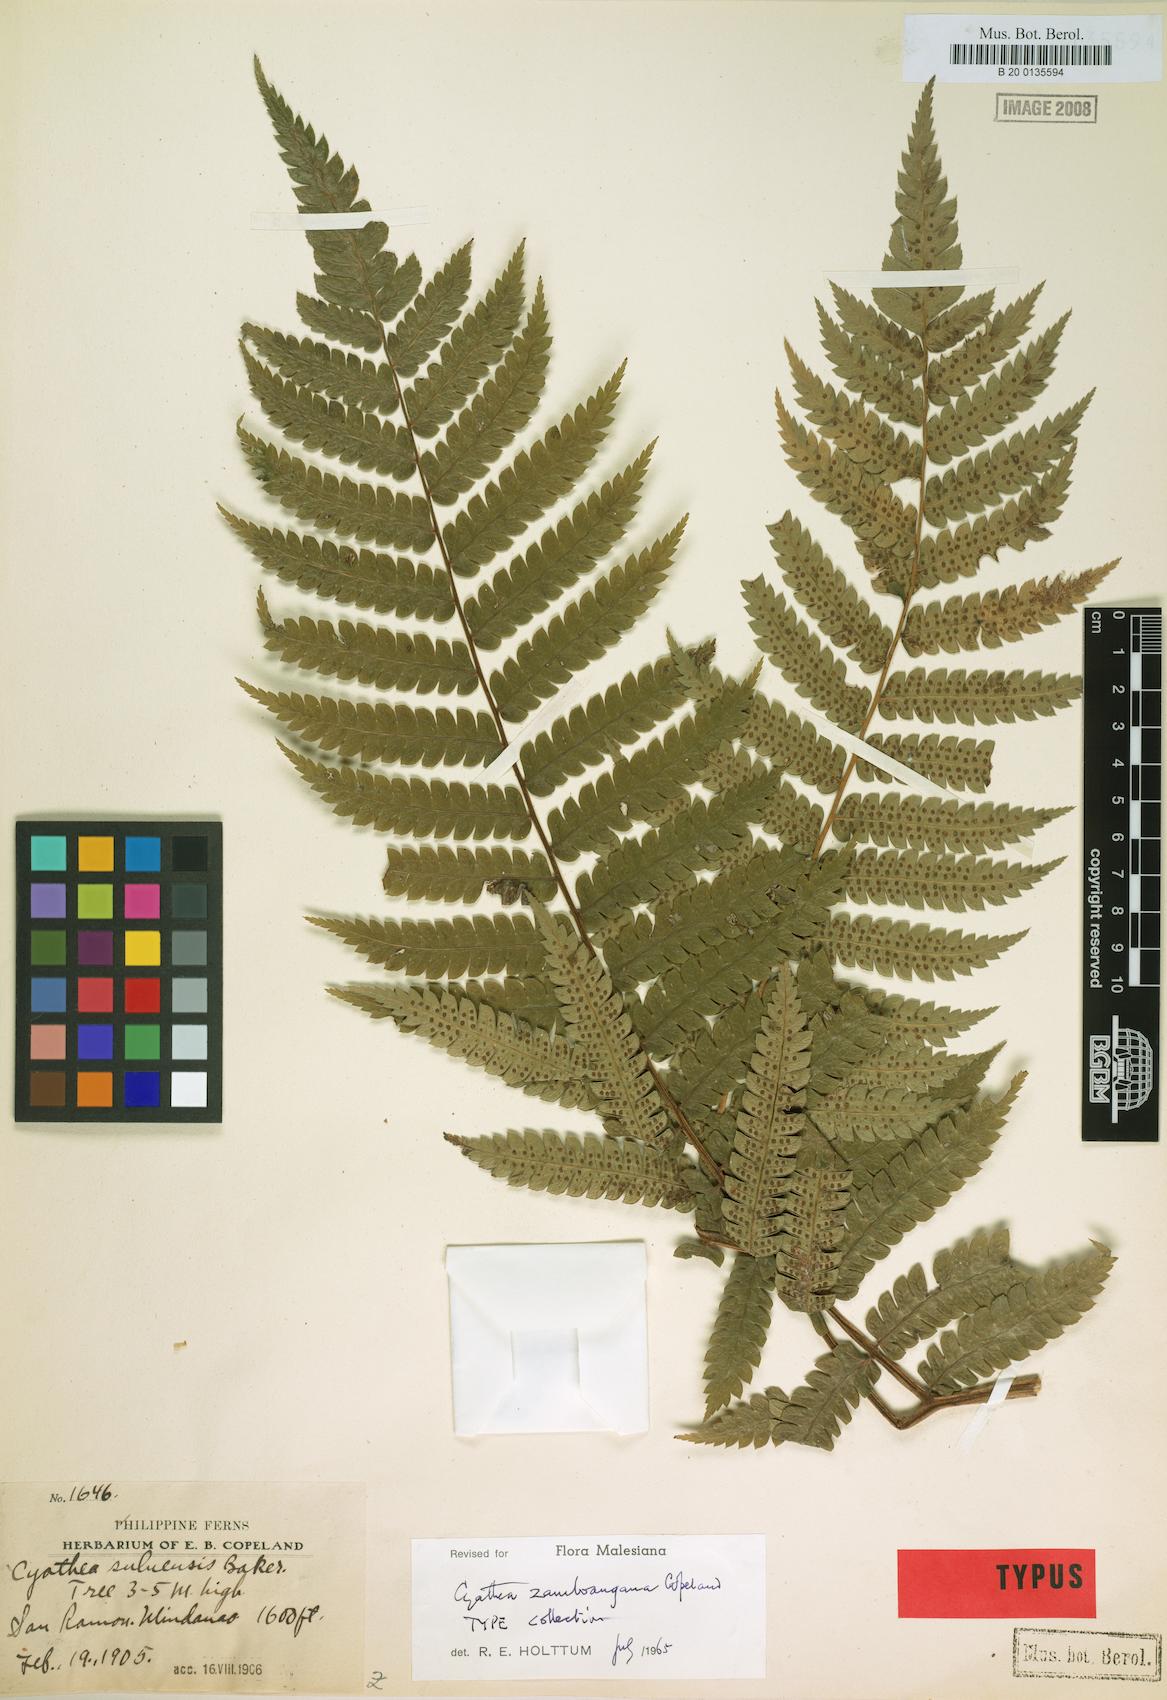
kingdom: Plantae
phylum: Tracheophyta
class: Polypodiopsida
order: Cyatheales
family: Cyatheaceae
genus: Sphaeropteris
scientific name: Sphaeropteris zamboangana
